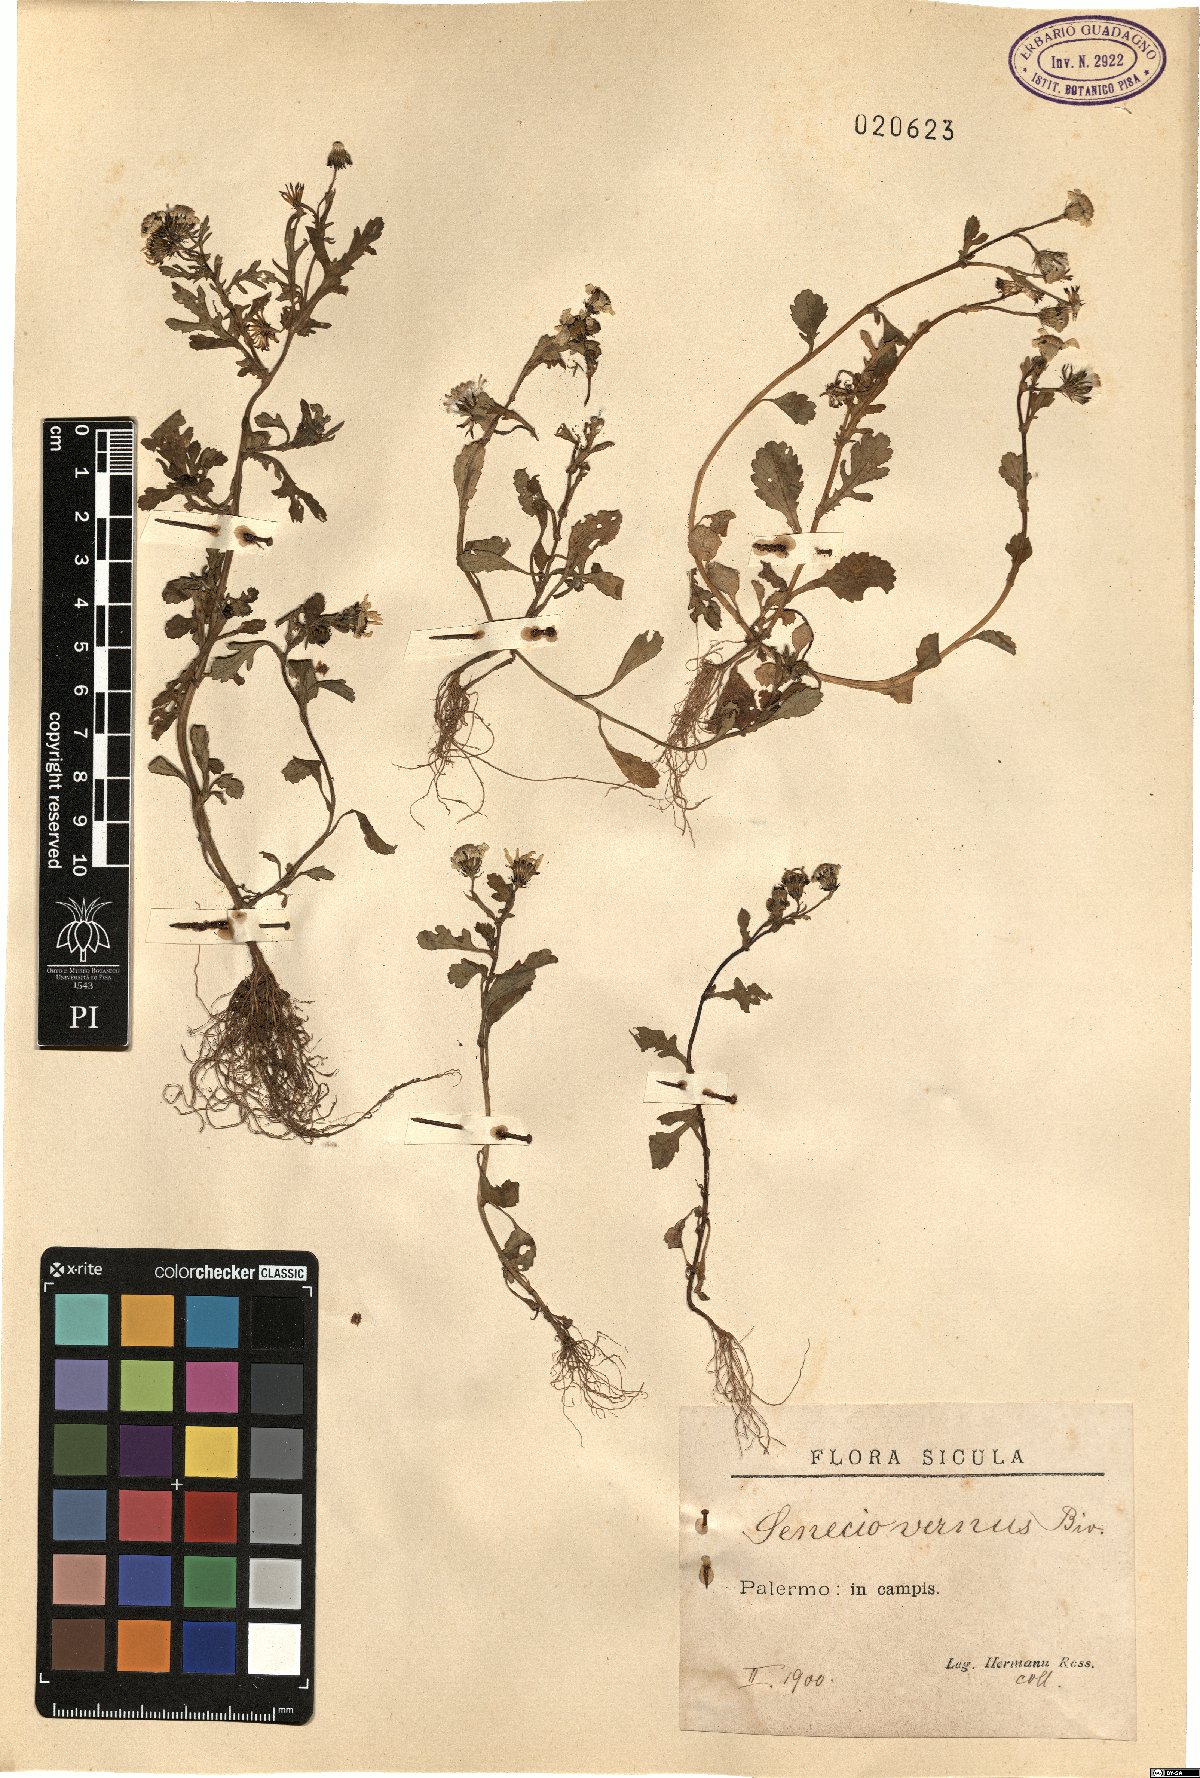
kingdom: Plantae
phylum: Tracheophyta
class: Magnoliopsida
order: Asterales
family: Asteraceae
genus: Senecio
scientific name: Senecio leucanthemifolius
